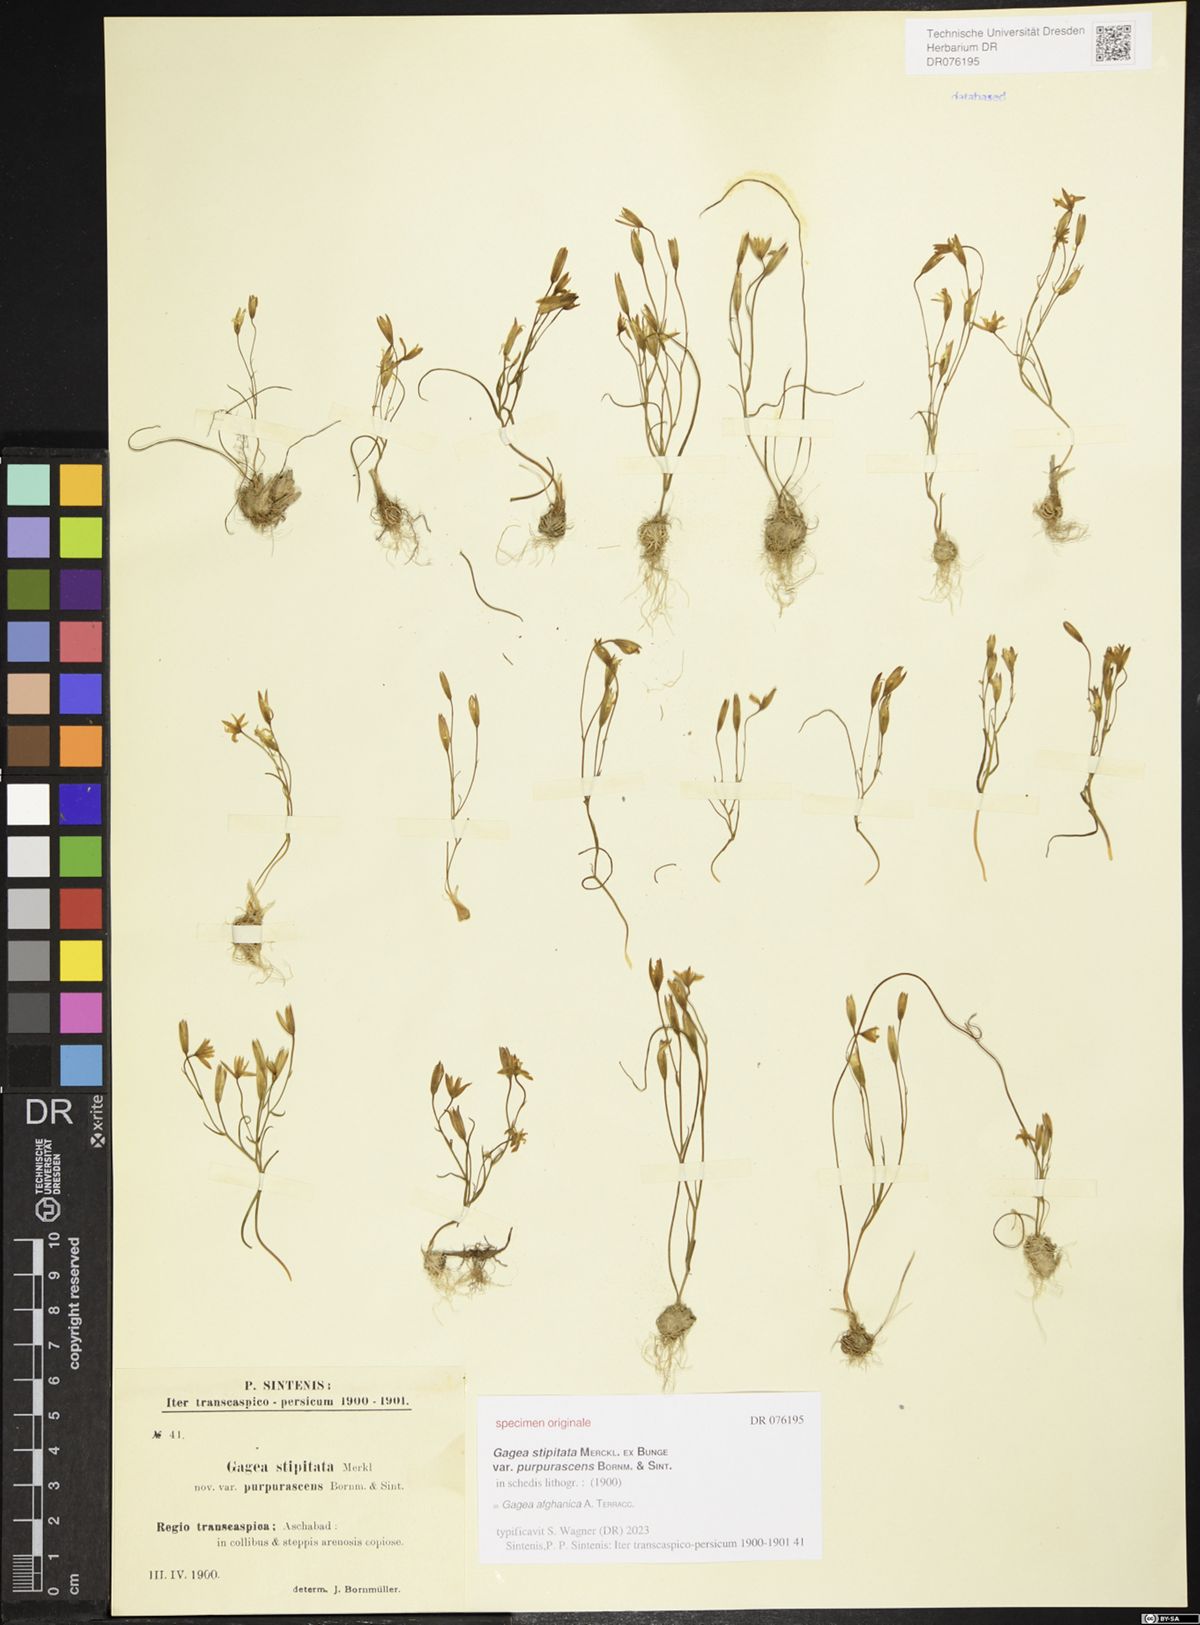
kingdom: Plantae
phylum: Tracheophyta
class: Liliopsida
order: Liliales
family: Liliaceae
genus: Gagea
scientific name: Gagea afghanica
